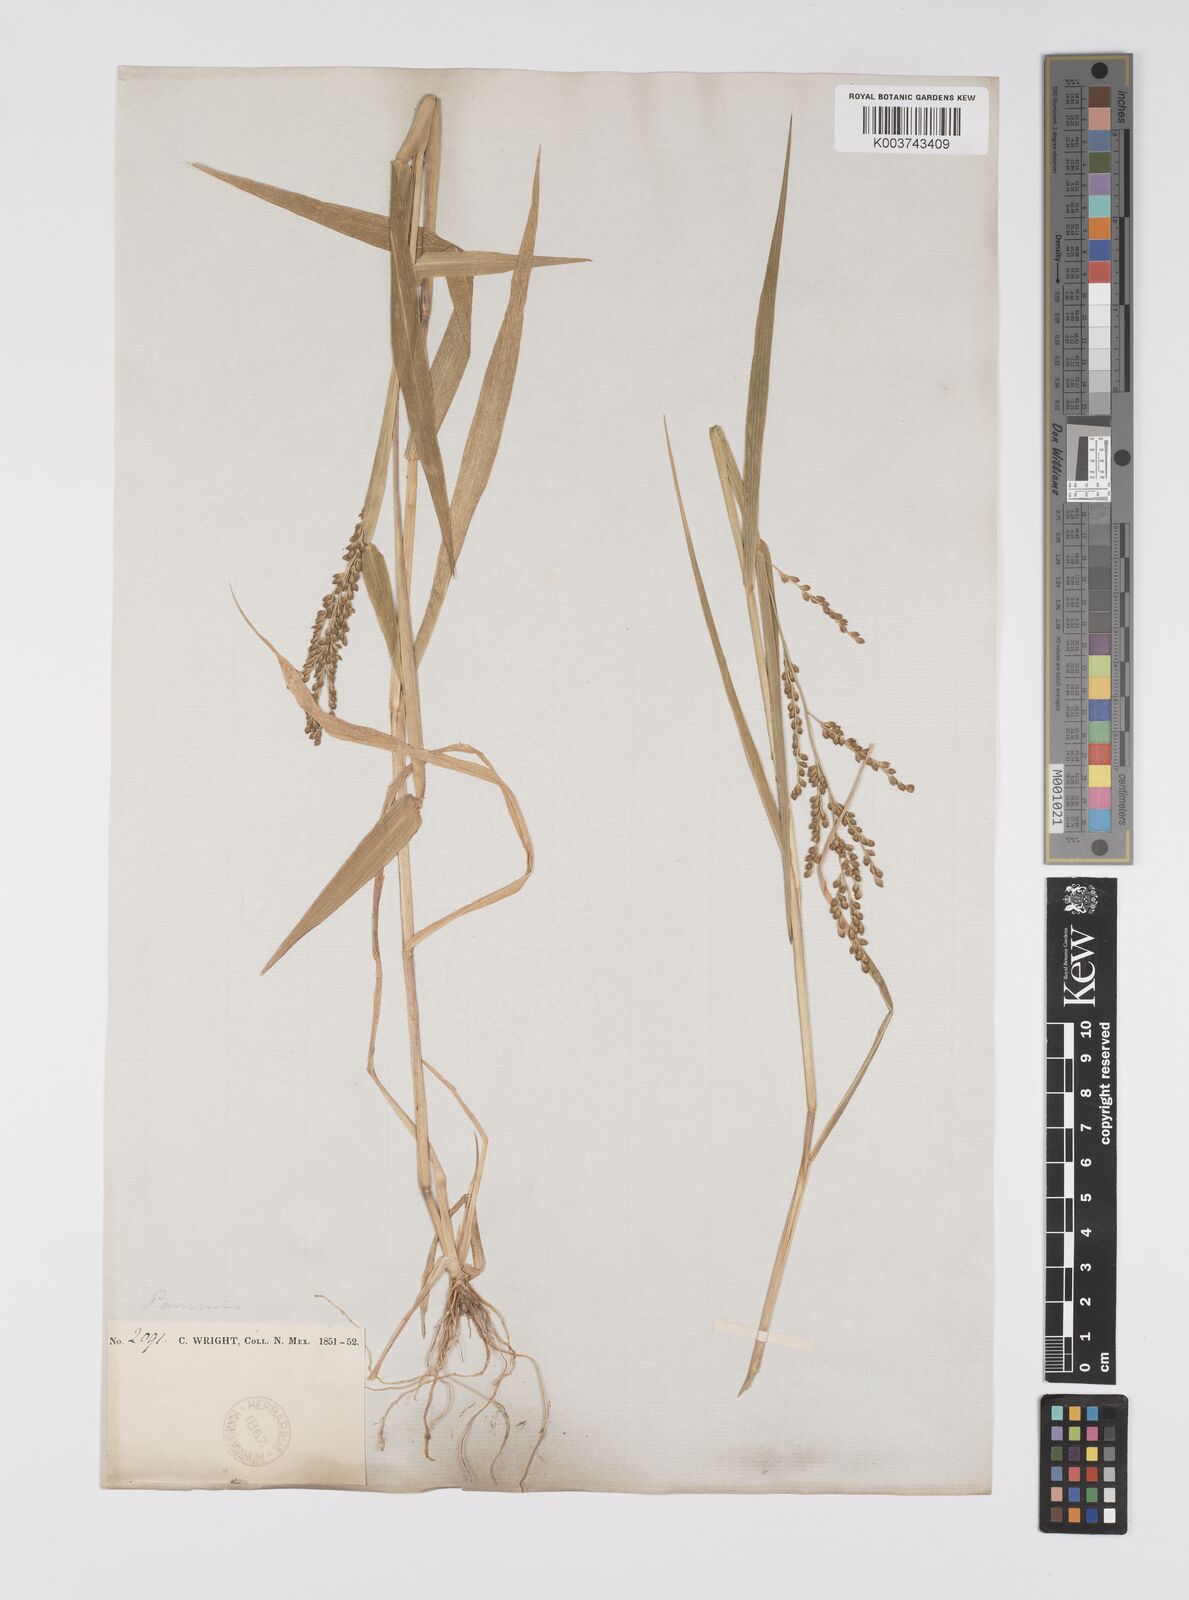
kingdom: Plantae
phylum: Tracheophyta
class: Liliopsida
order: Poales
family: Poaceae
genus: Urochloa
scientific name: Urochloa fusca
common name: Browntop signal grass
